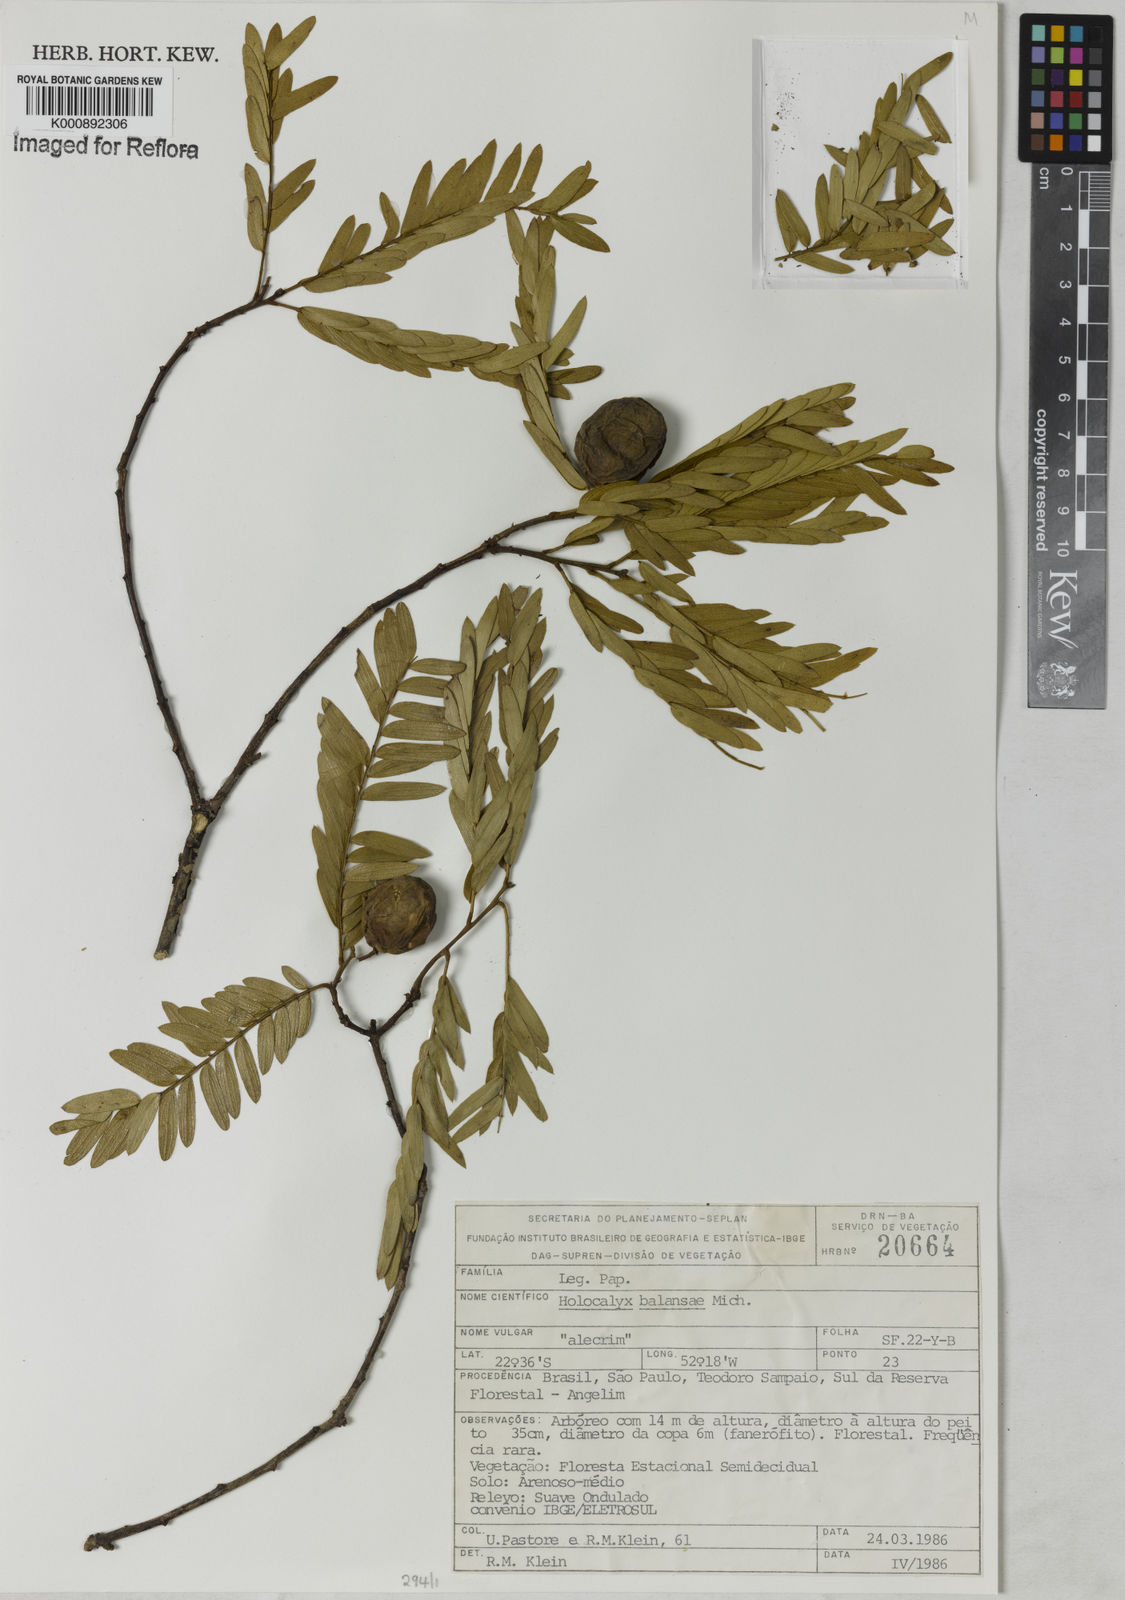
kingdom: Plantae
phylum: Tracheophyta
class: Magnoliopsida
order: Fabales
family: Fabaceae
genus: Holocalyx
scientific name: Holocalyx
